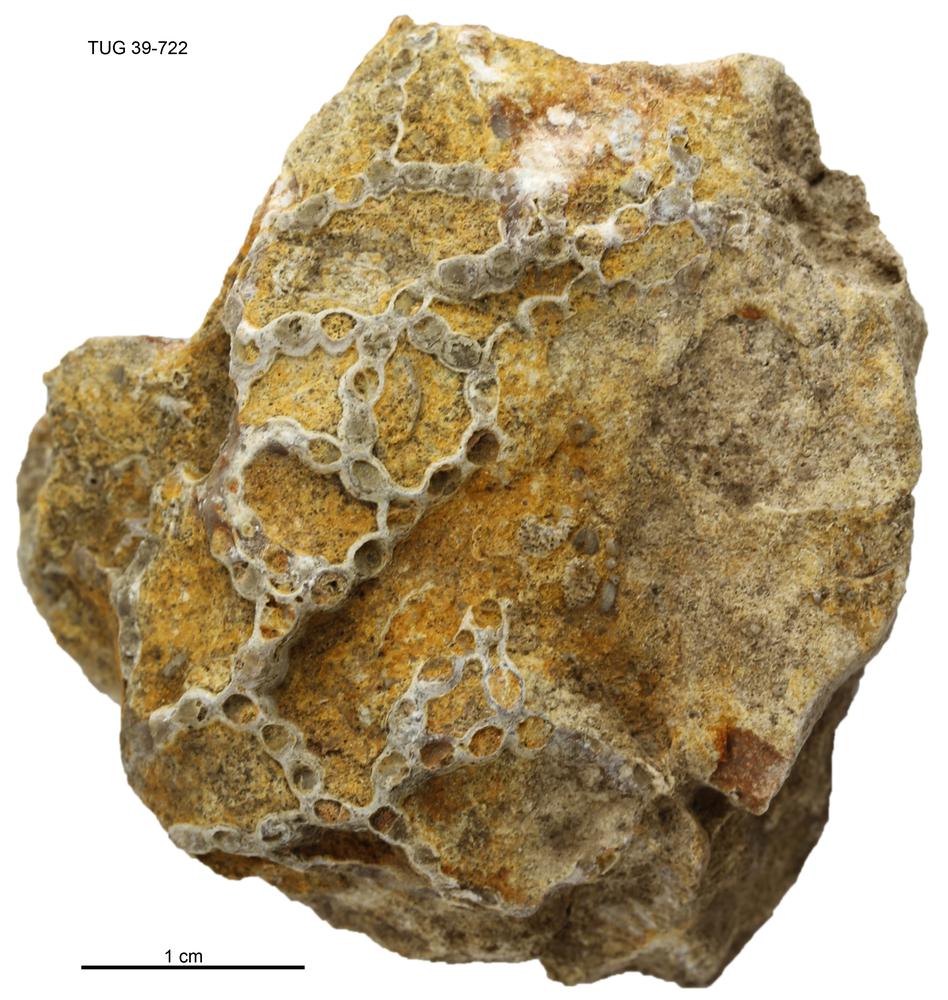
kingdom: Animalia
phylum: Cnidaria
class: Anthozoa
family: Halysitidae
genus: Halysites
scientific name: Halysites
